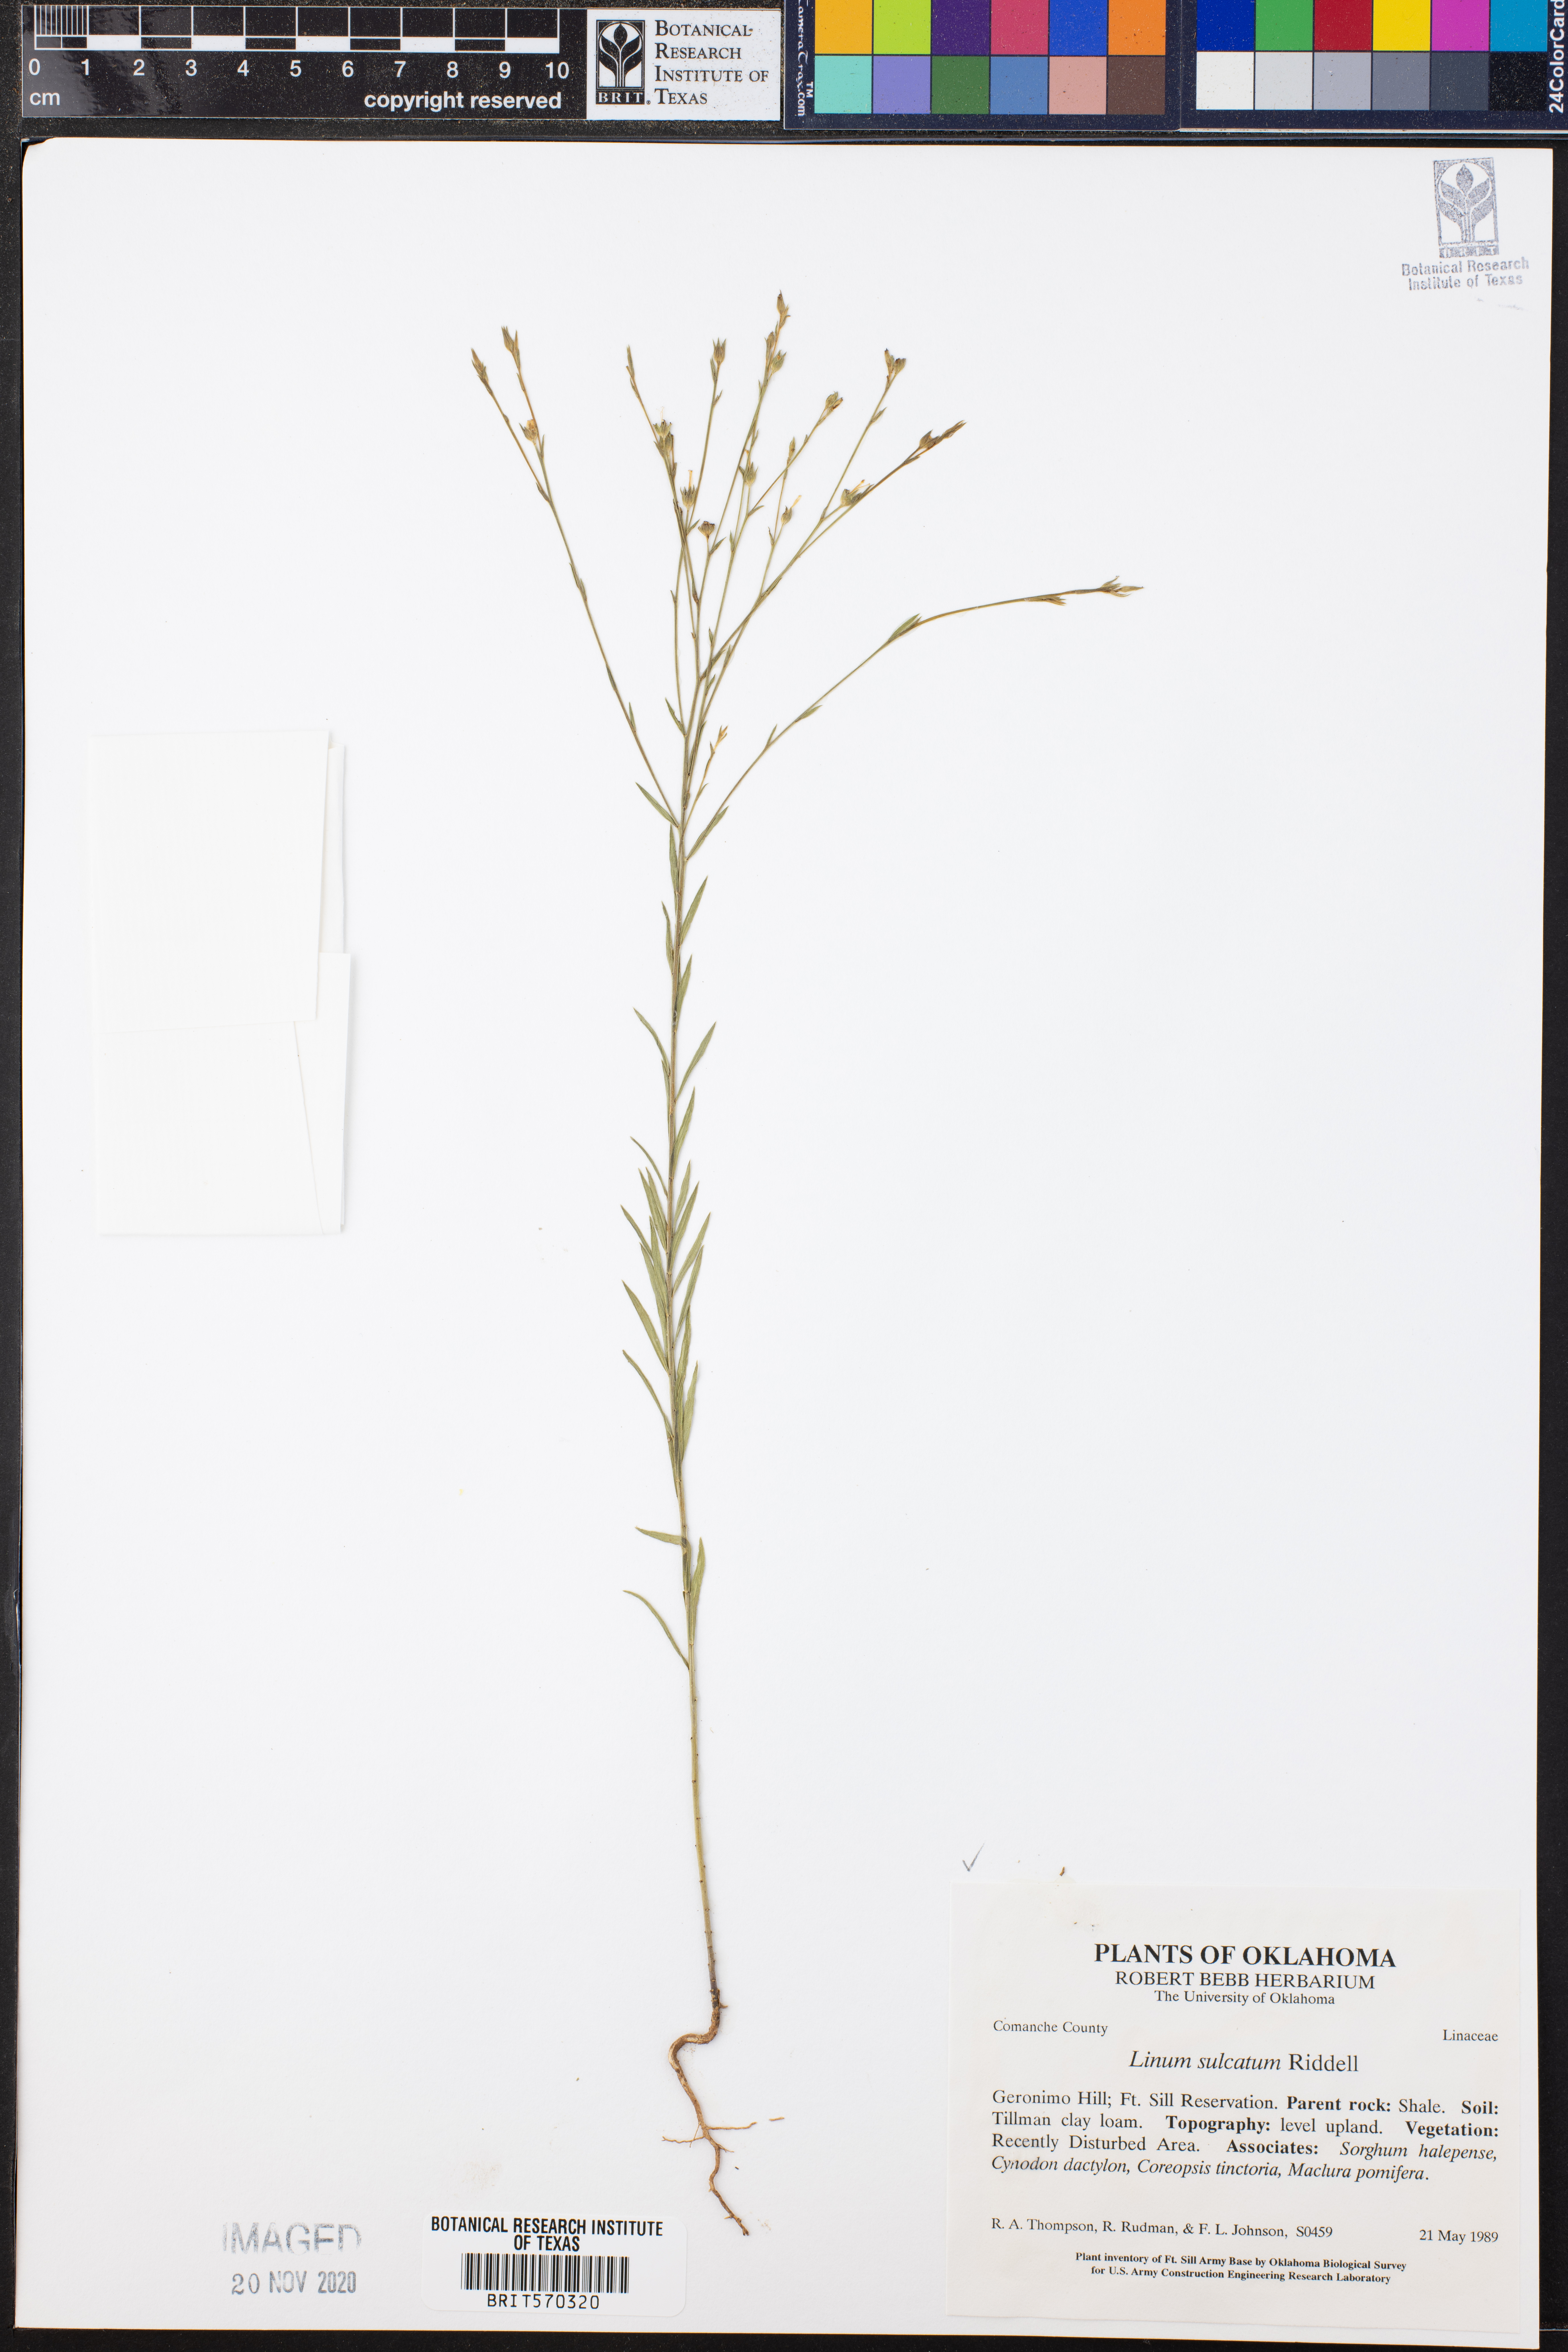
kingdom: Plantae
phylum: Tracheophyta
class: Magnoliopsida
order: Malpighiales
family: Linaceae
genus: Linum
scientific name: Linum sulcatum
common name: Grooved flax
